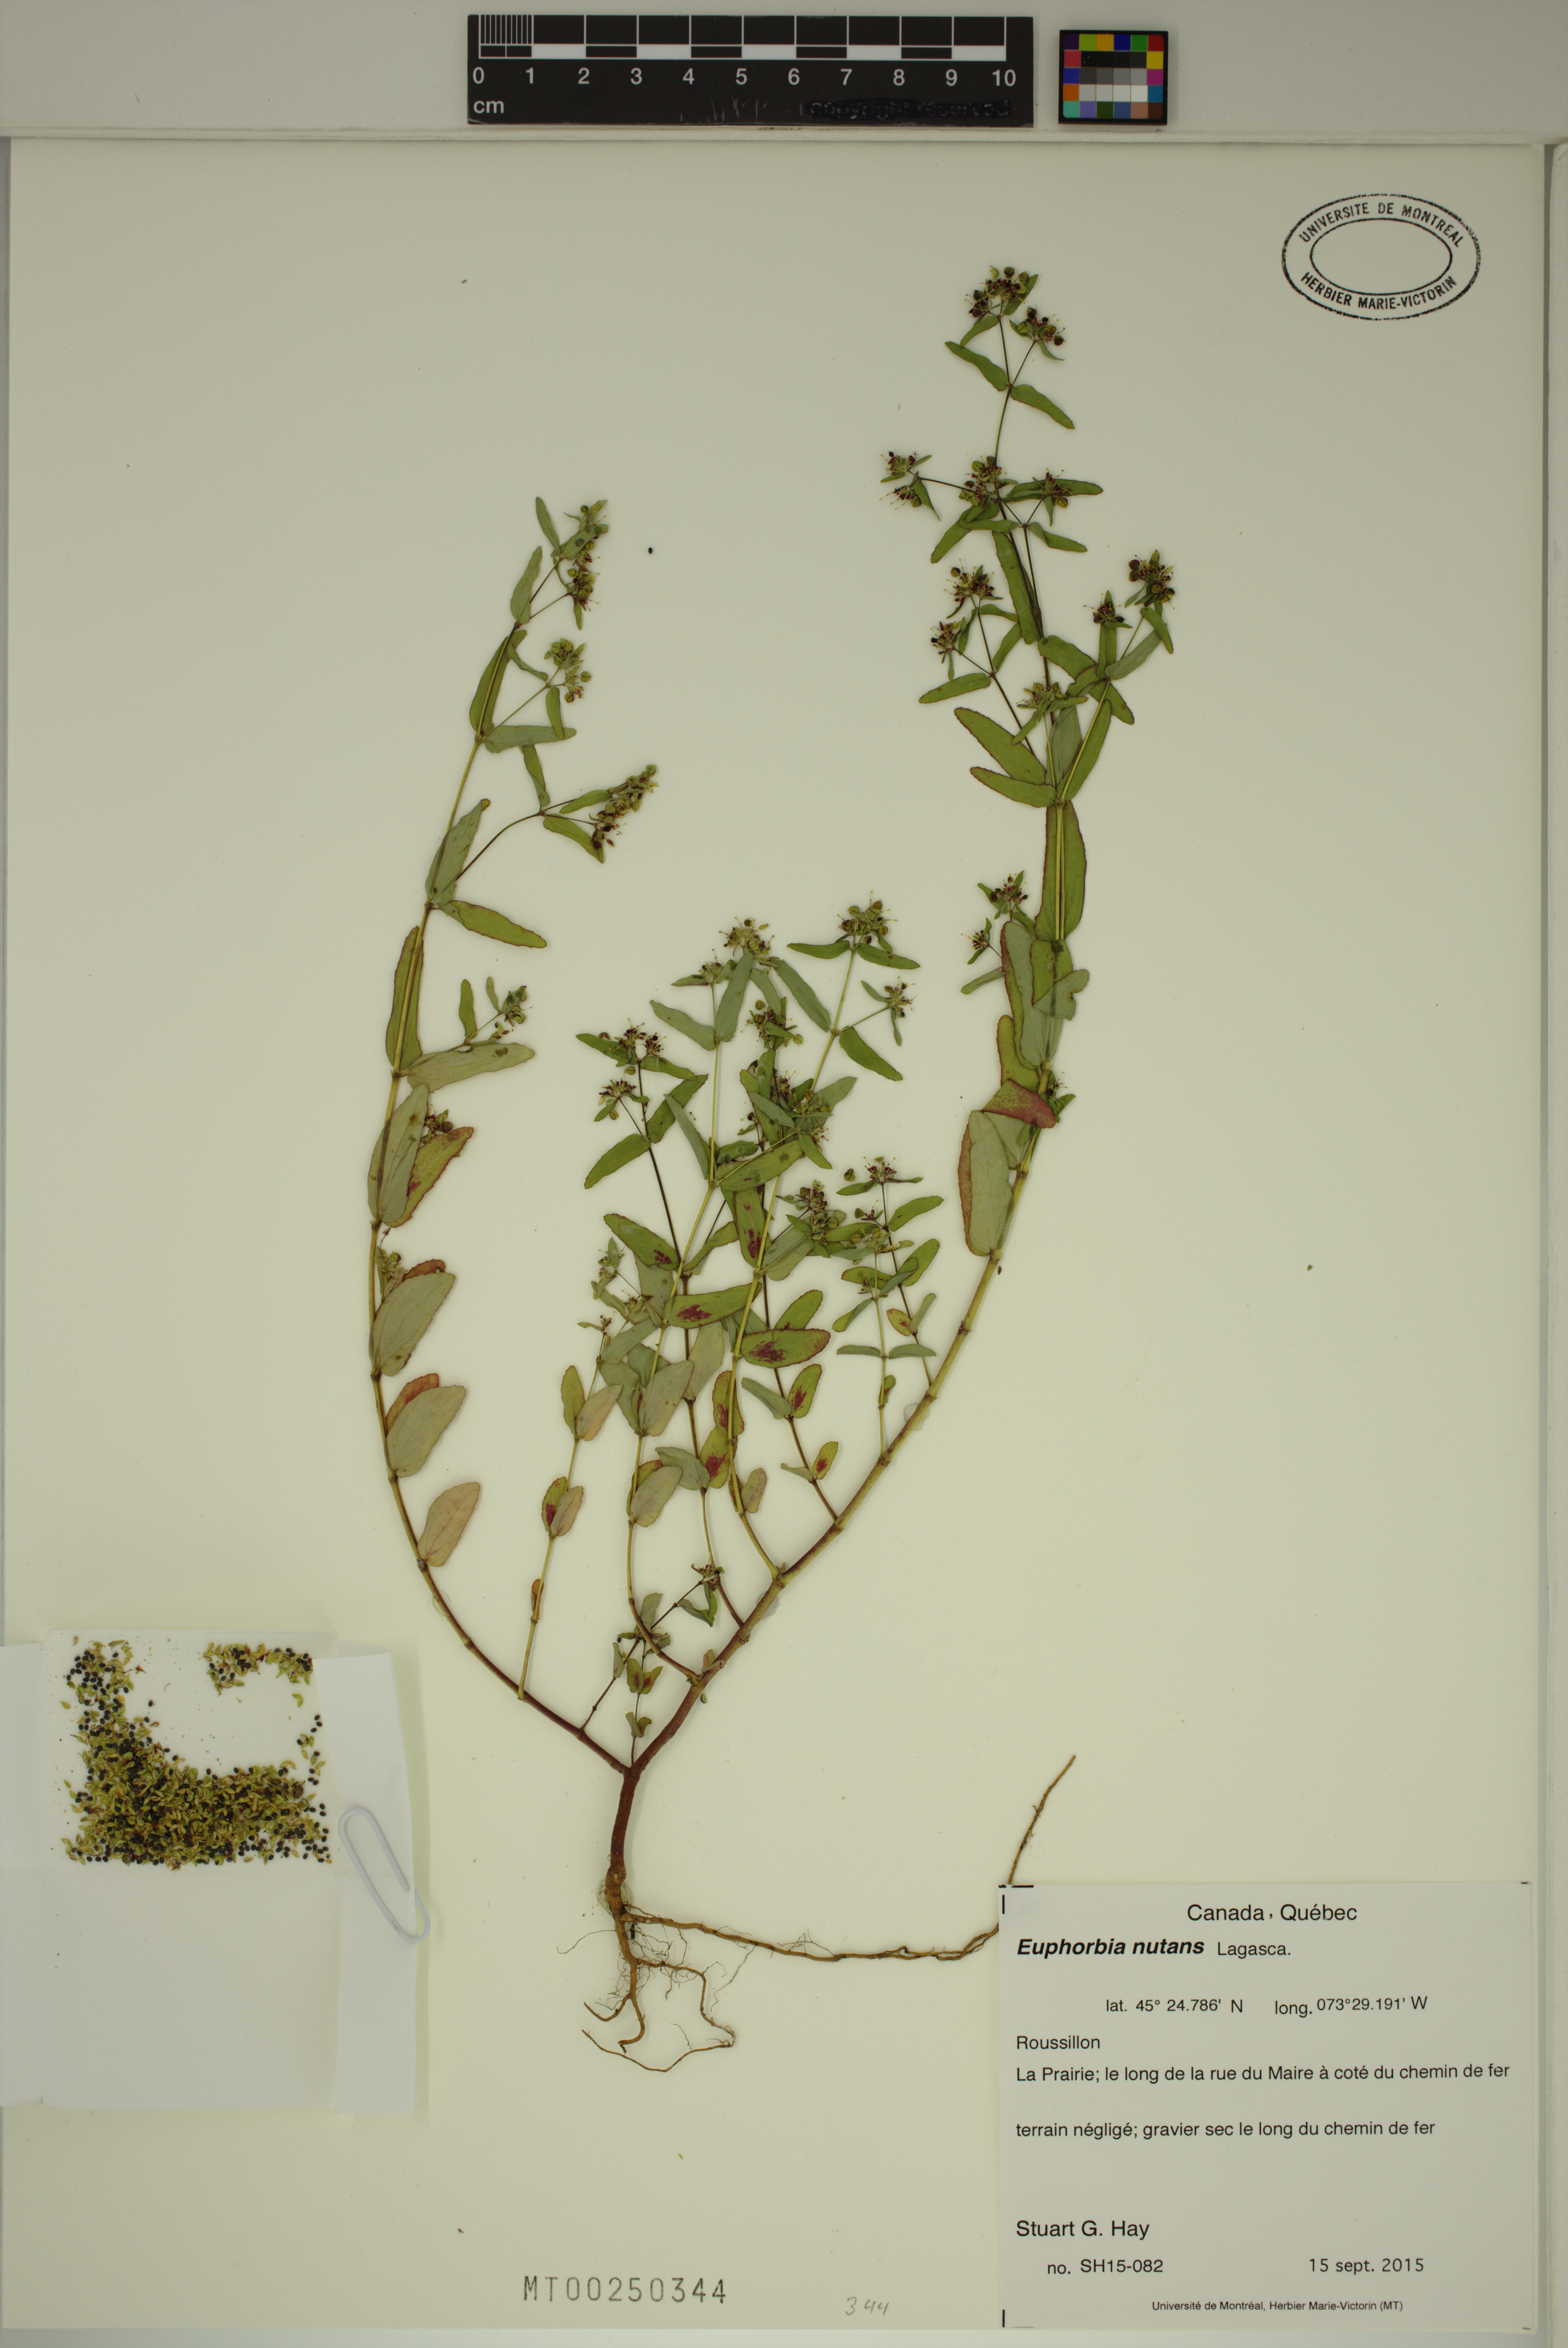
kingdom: Plantae
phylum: Tracheophyta
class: Magnoliopsida
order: Malpighiales
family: Euphorbiaceae
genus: Euphorbia
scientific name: Euphorbia nutans
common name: Eyebane
